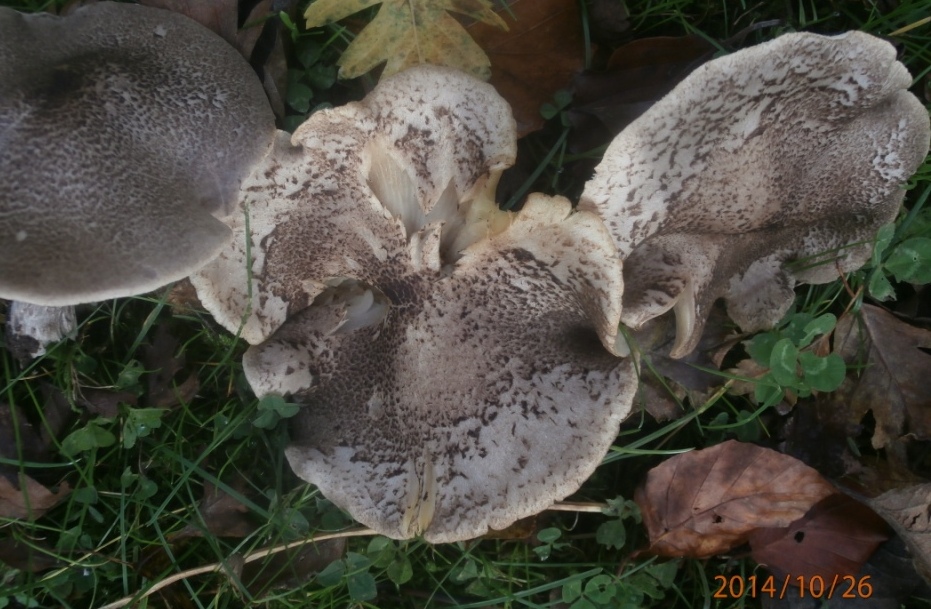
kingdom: Fungi
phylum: Basidiomycota
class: Agaricomycetes
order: Agaricales
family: Tricholomataceae
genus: Tricholoma
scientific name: Tricholoma scalpturatum
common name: gulplettet ridderhat
